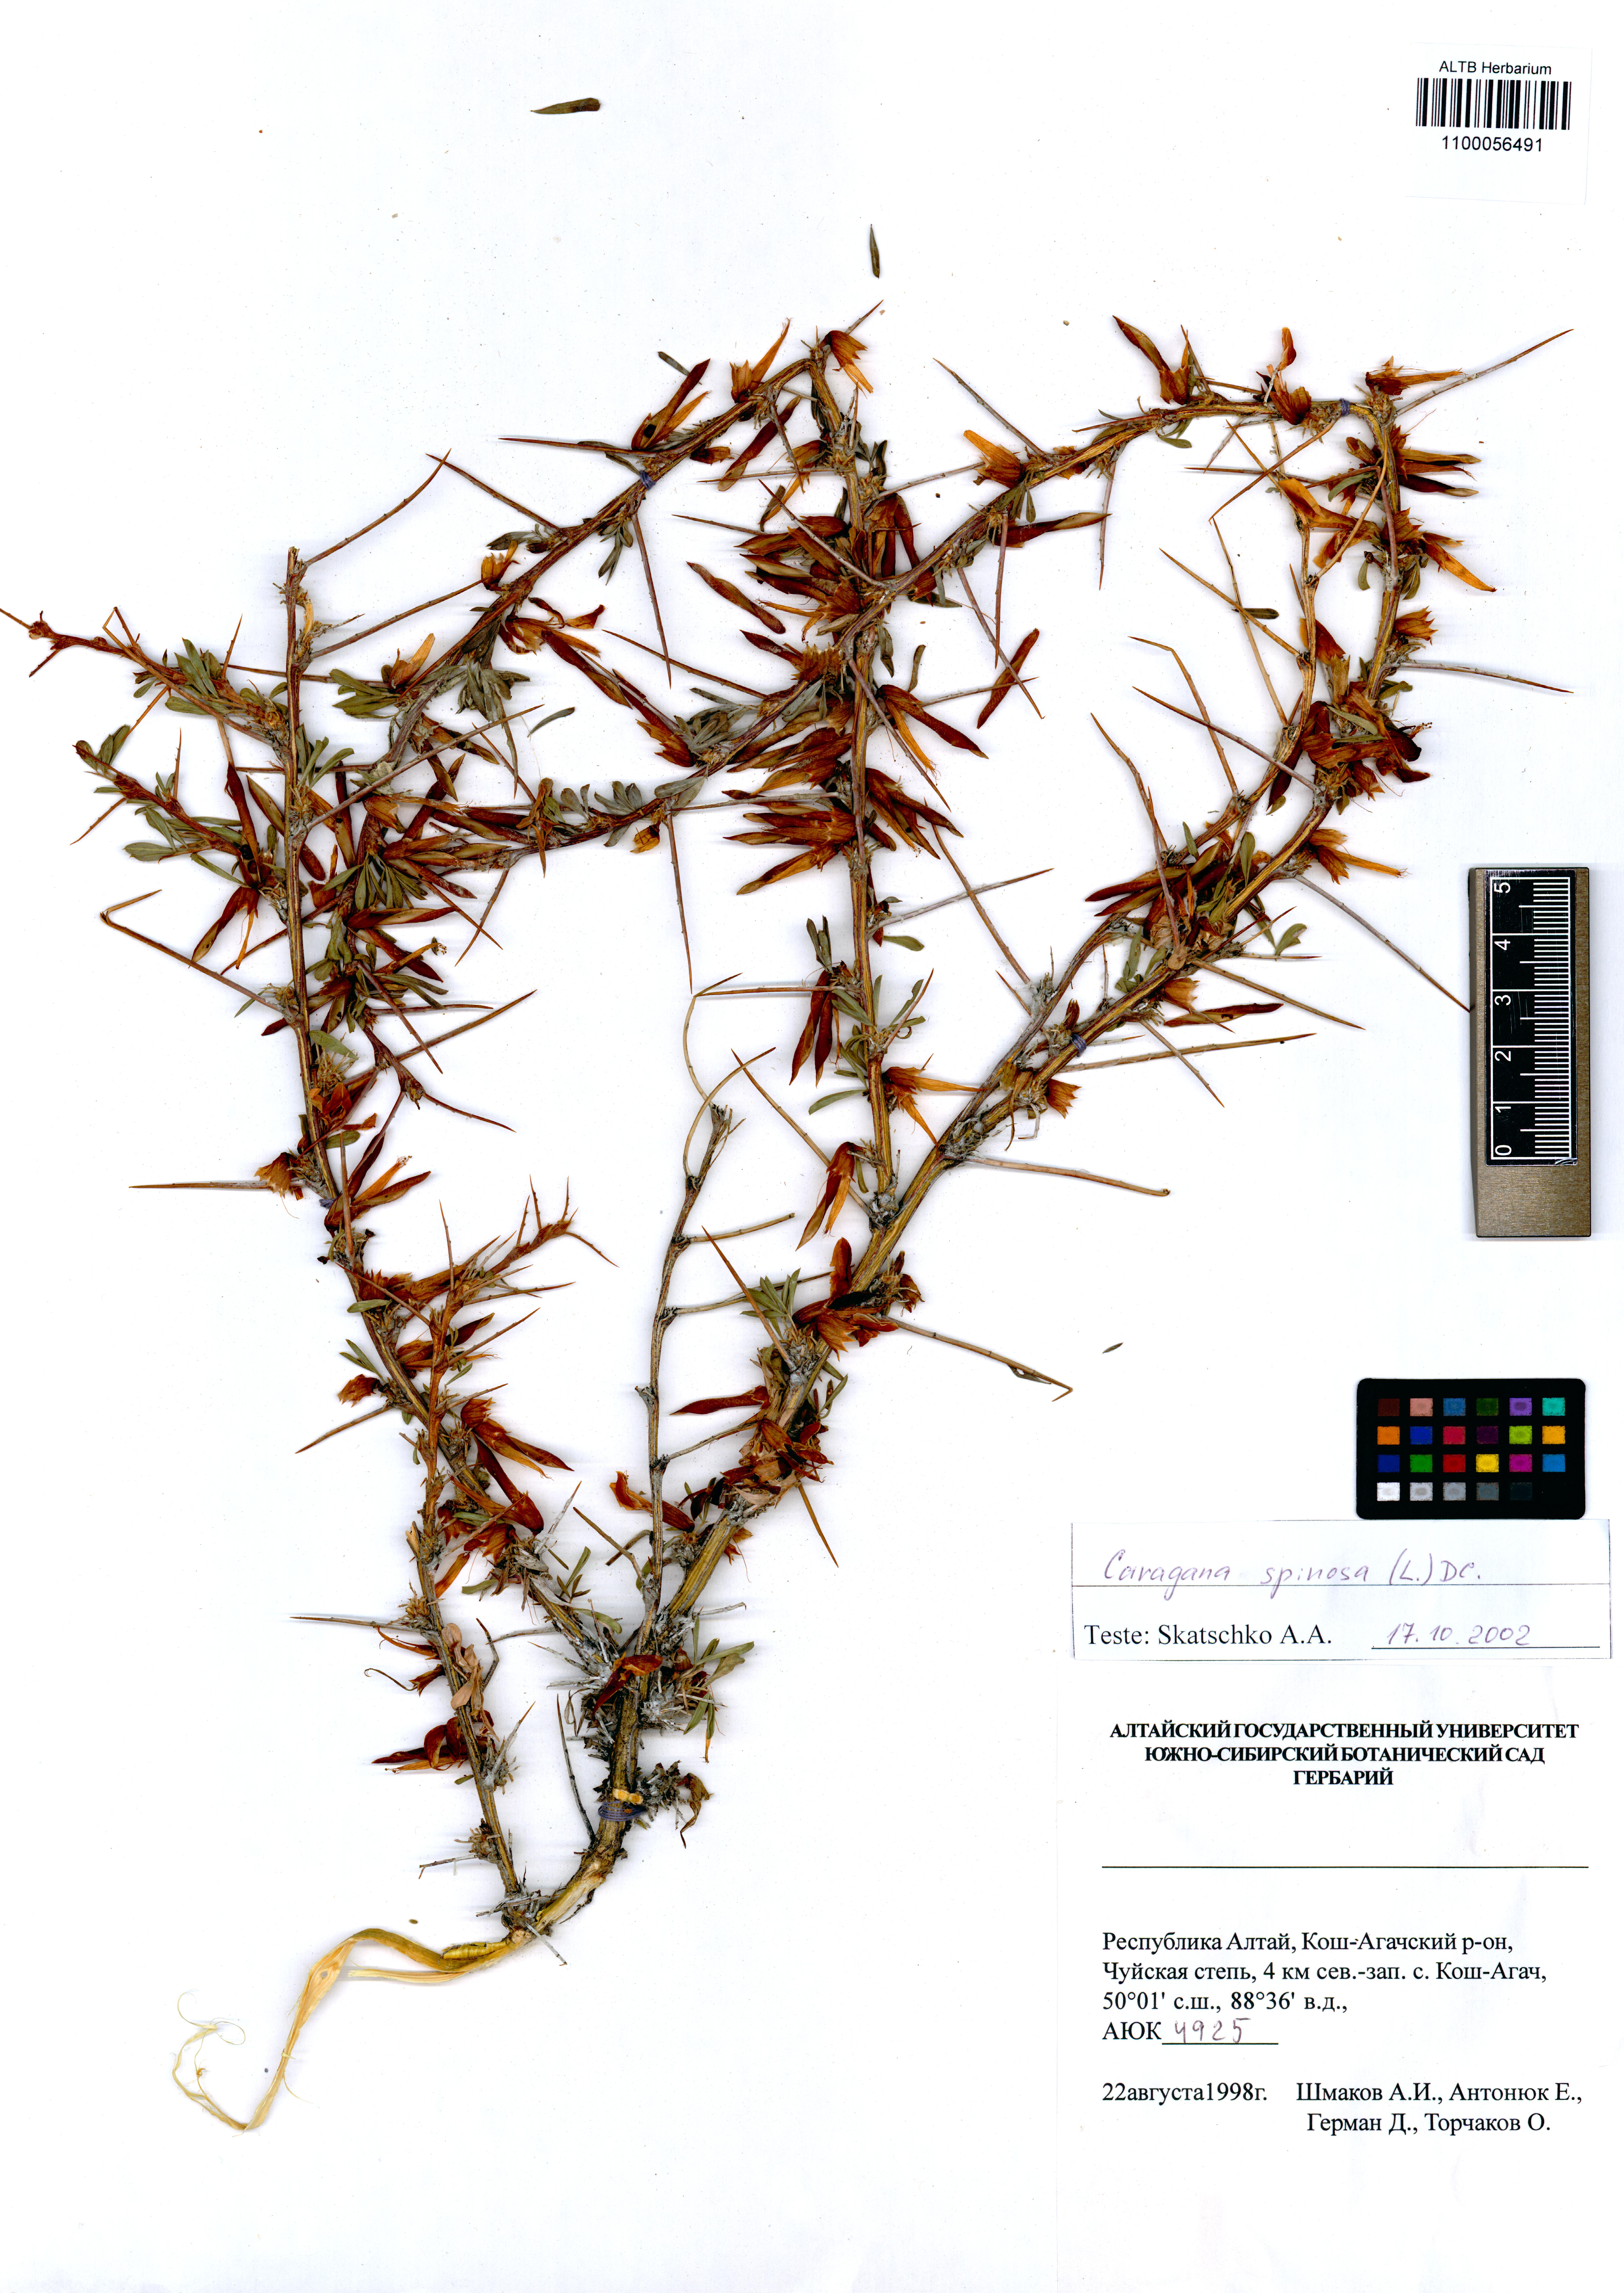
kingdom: Plantae
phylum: Tracheophyta
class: Magnoliopsida
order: Fabales
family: Fabaceae
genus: Caragana
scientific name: Caragana spinosa
